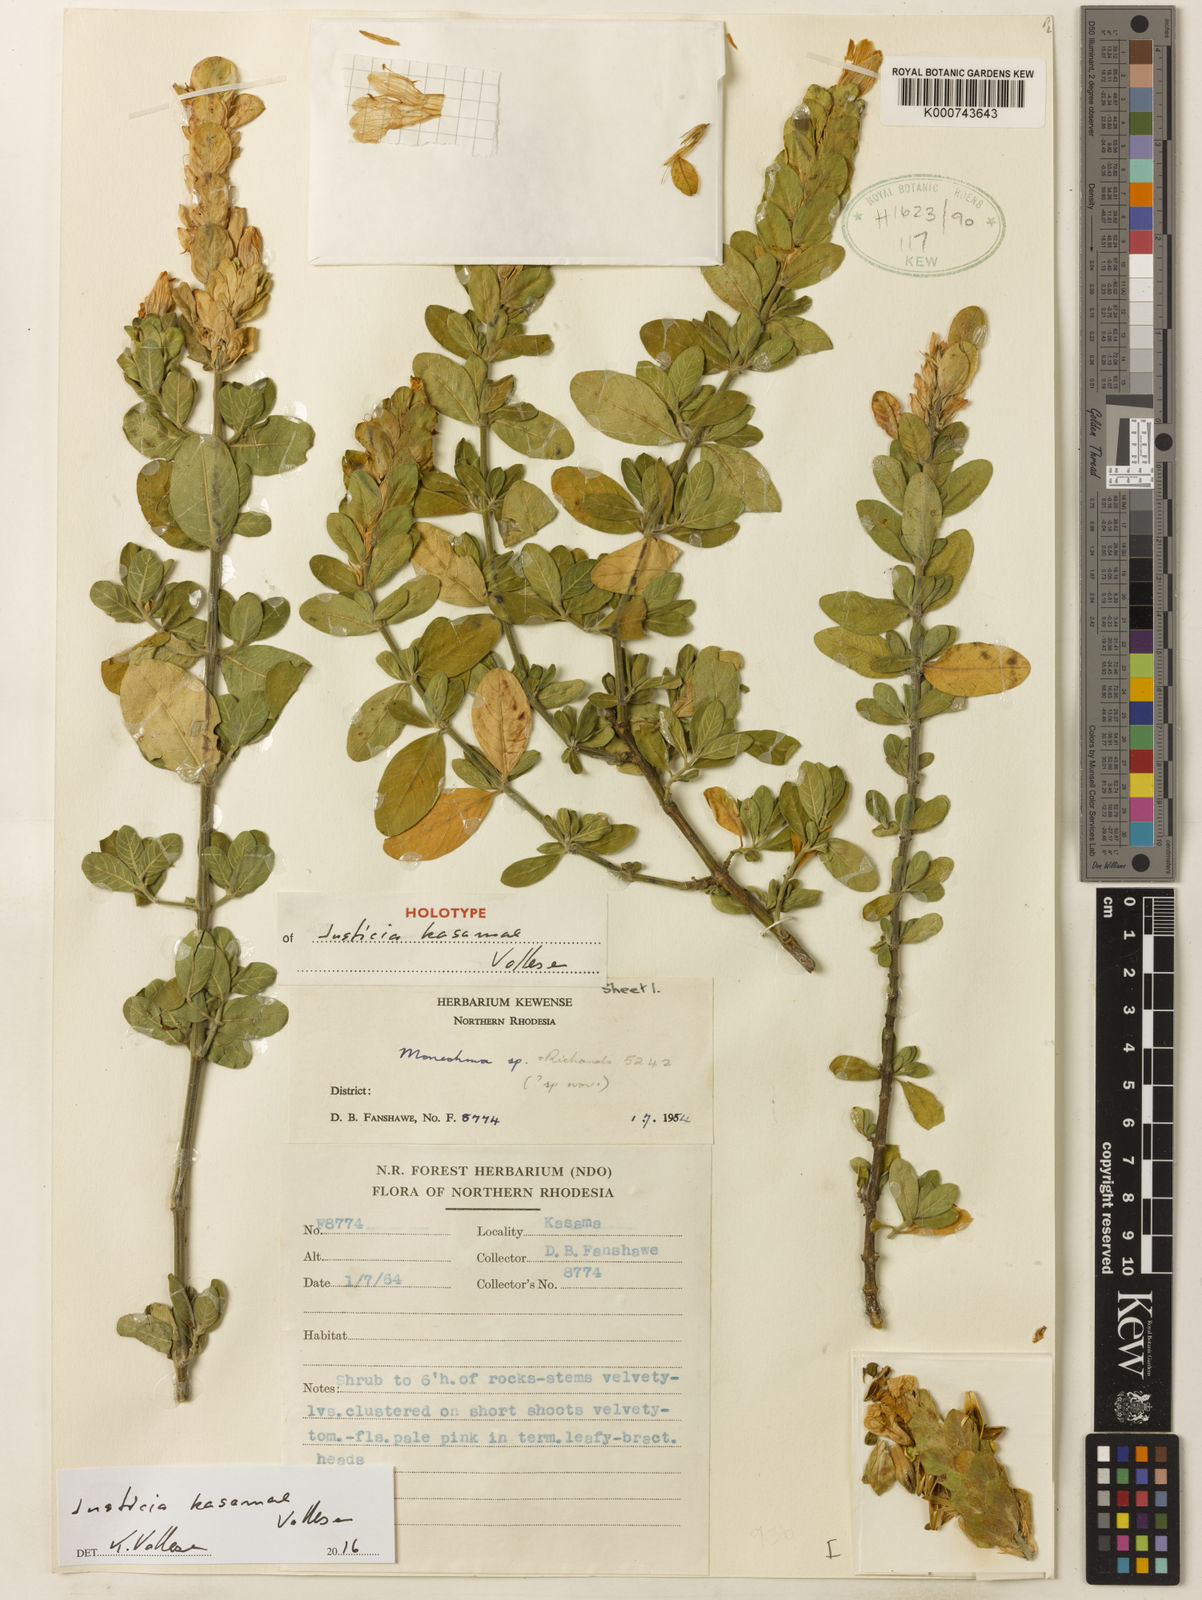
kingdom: Plantae
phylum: Tracheophyta
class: Magnoliopsida
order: Lamiales
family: Acanthaceae
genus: Monechma
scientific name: Monechma kasamae
